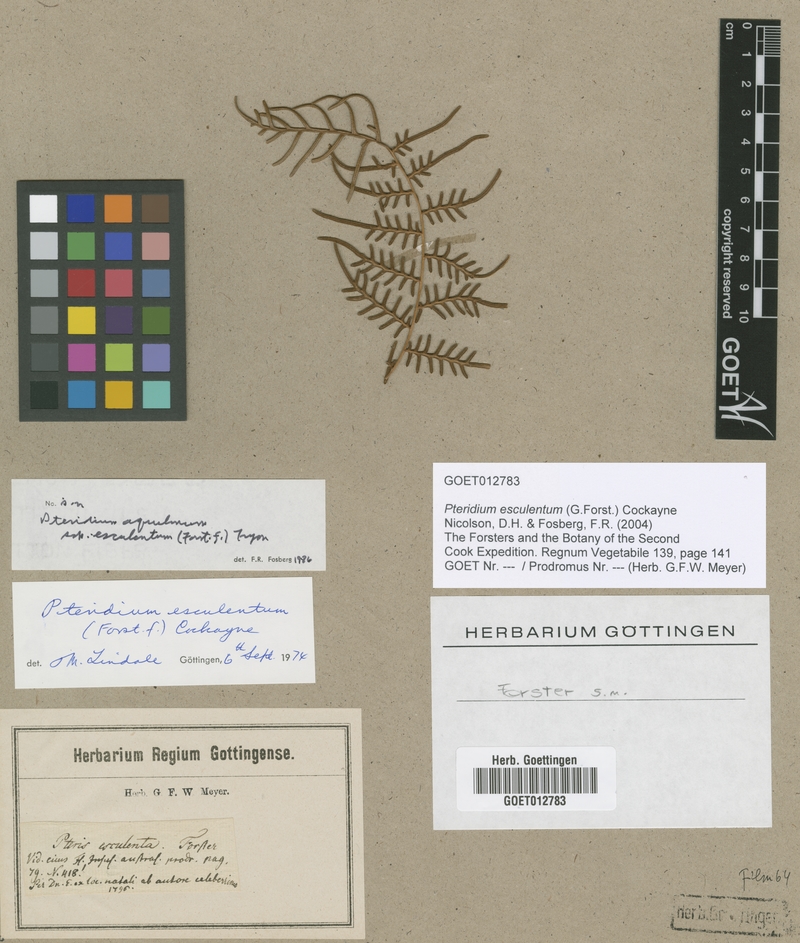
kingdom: Plantae
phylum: Tracheophyta
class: Polypodiopsida
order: Polypodiales
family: Dennstaedtiaceae
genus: Pteridium
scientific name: Pteridium esculentum
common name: Bracken fern
